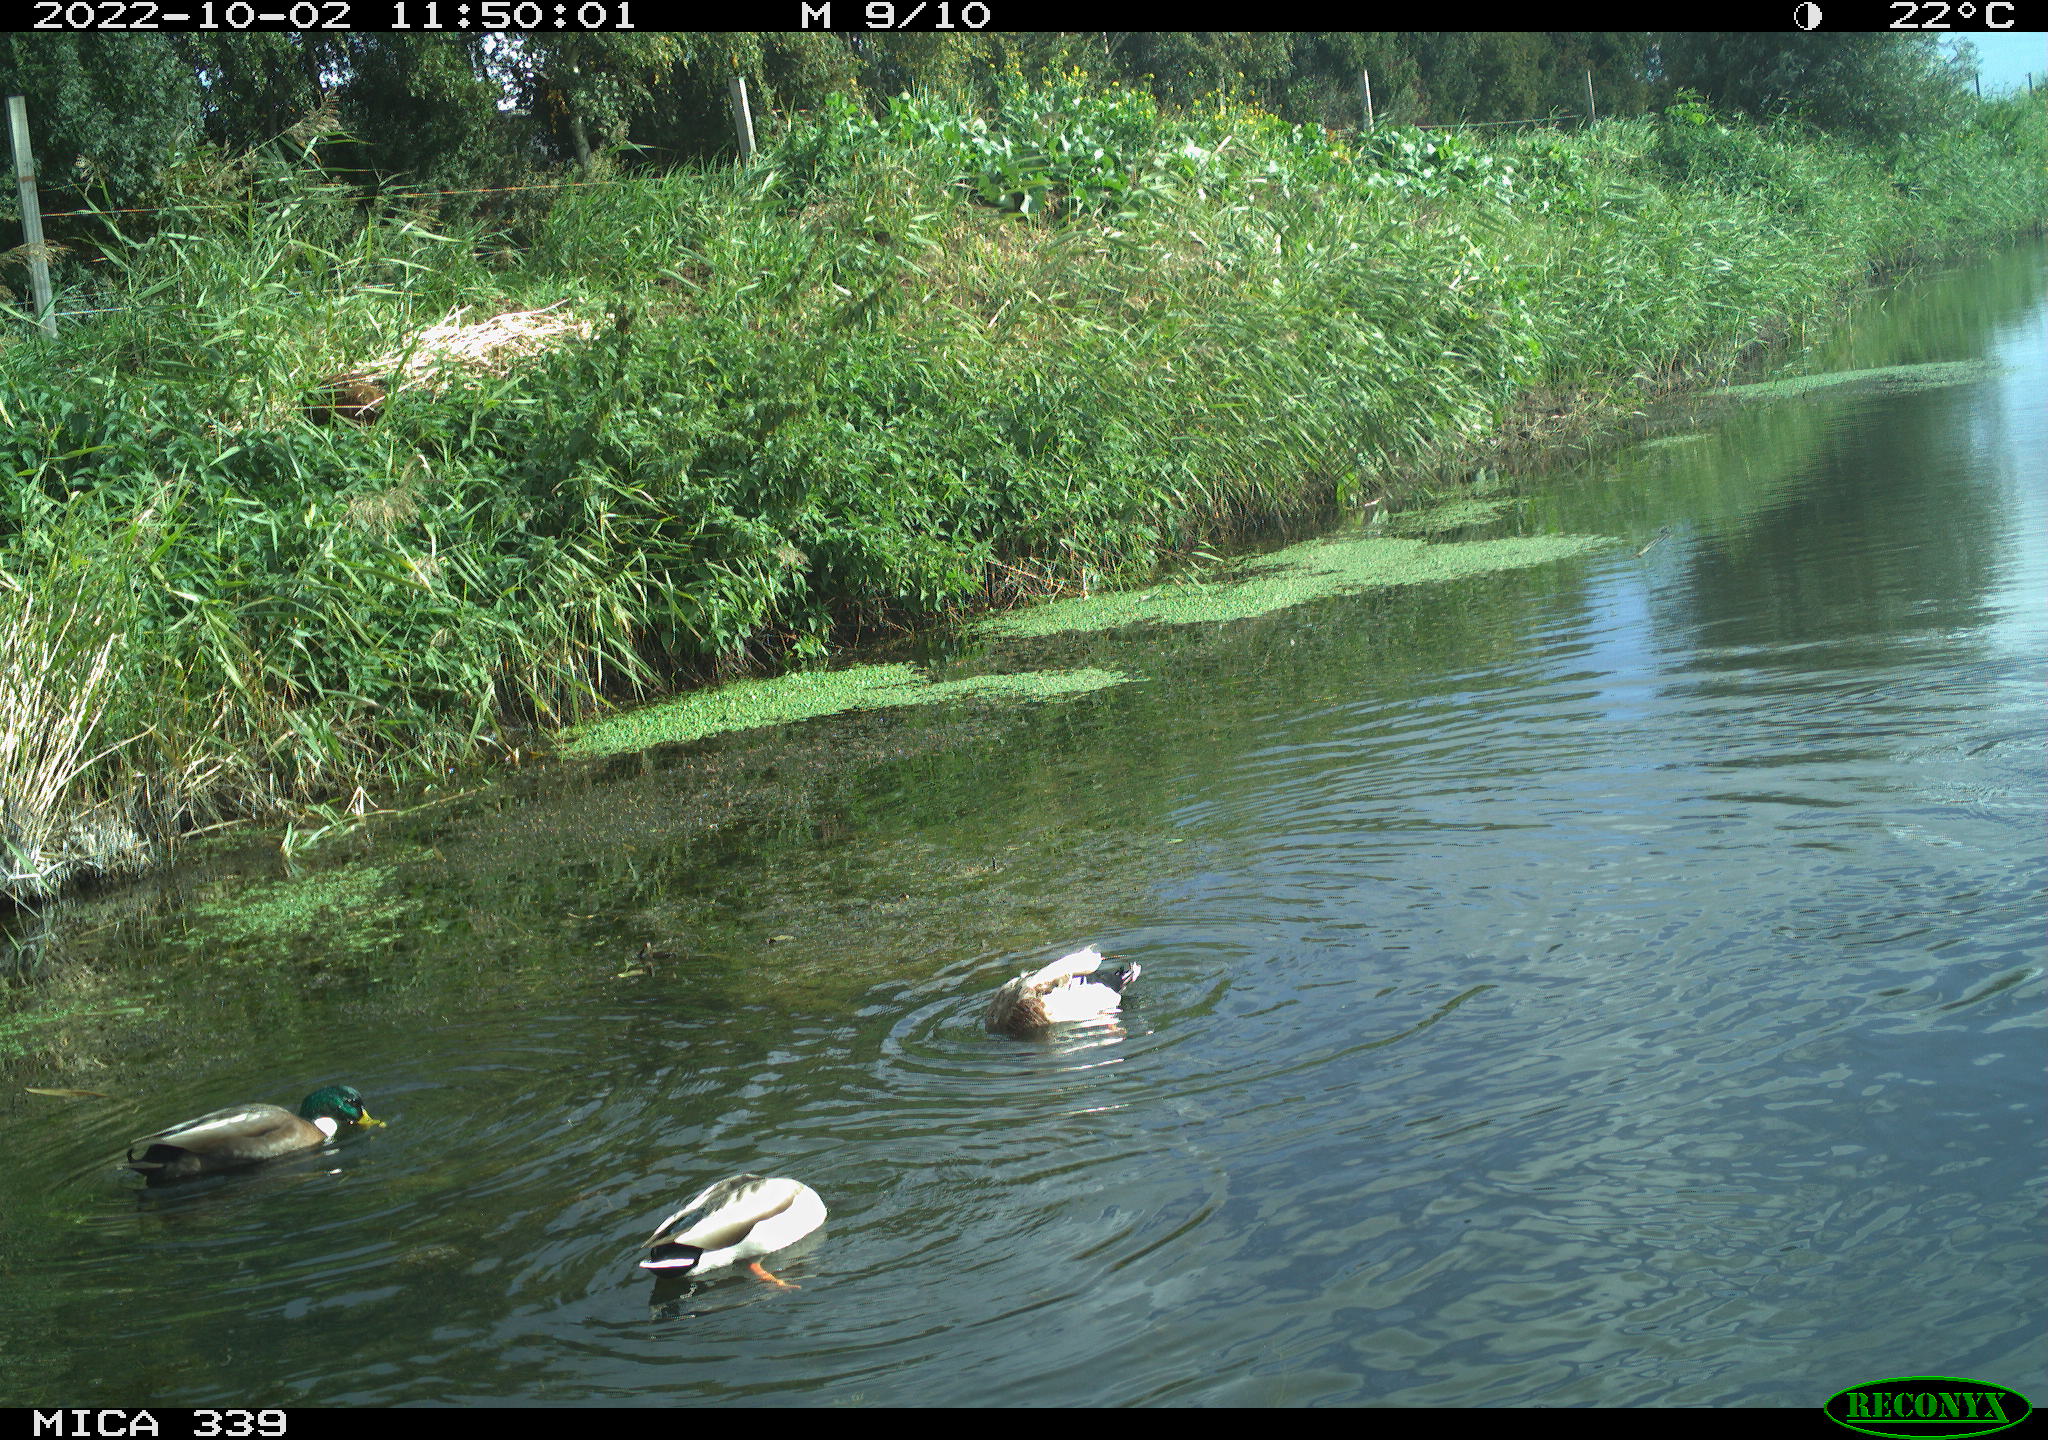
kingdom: Animalia
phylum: Chordata
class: Aves
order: Anseriformes
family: Anatidae
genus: Anas
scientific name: Anas platyrhynchos
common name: Mallard
